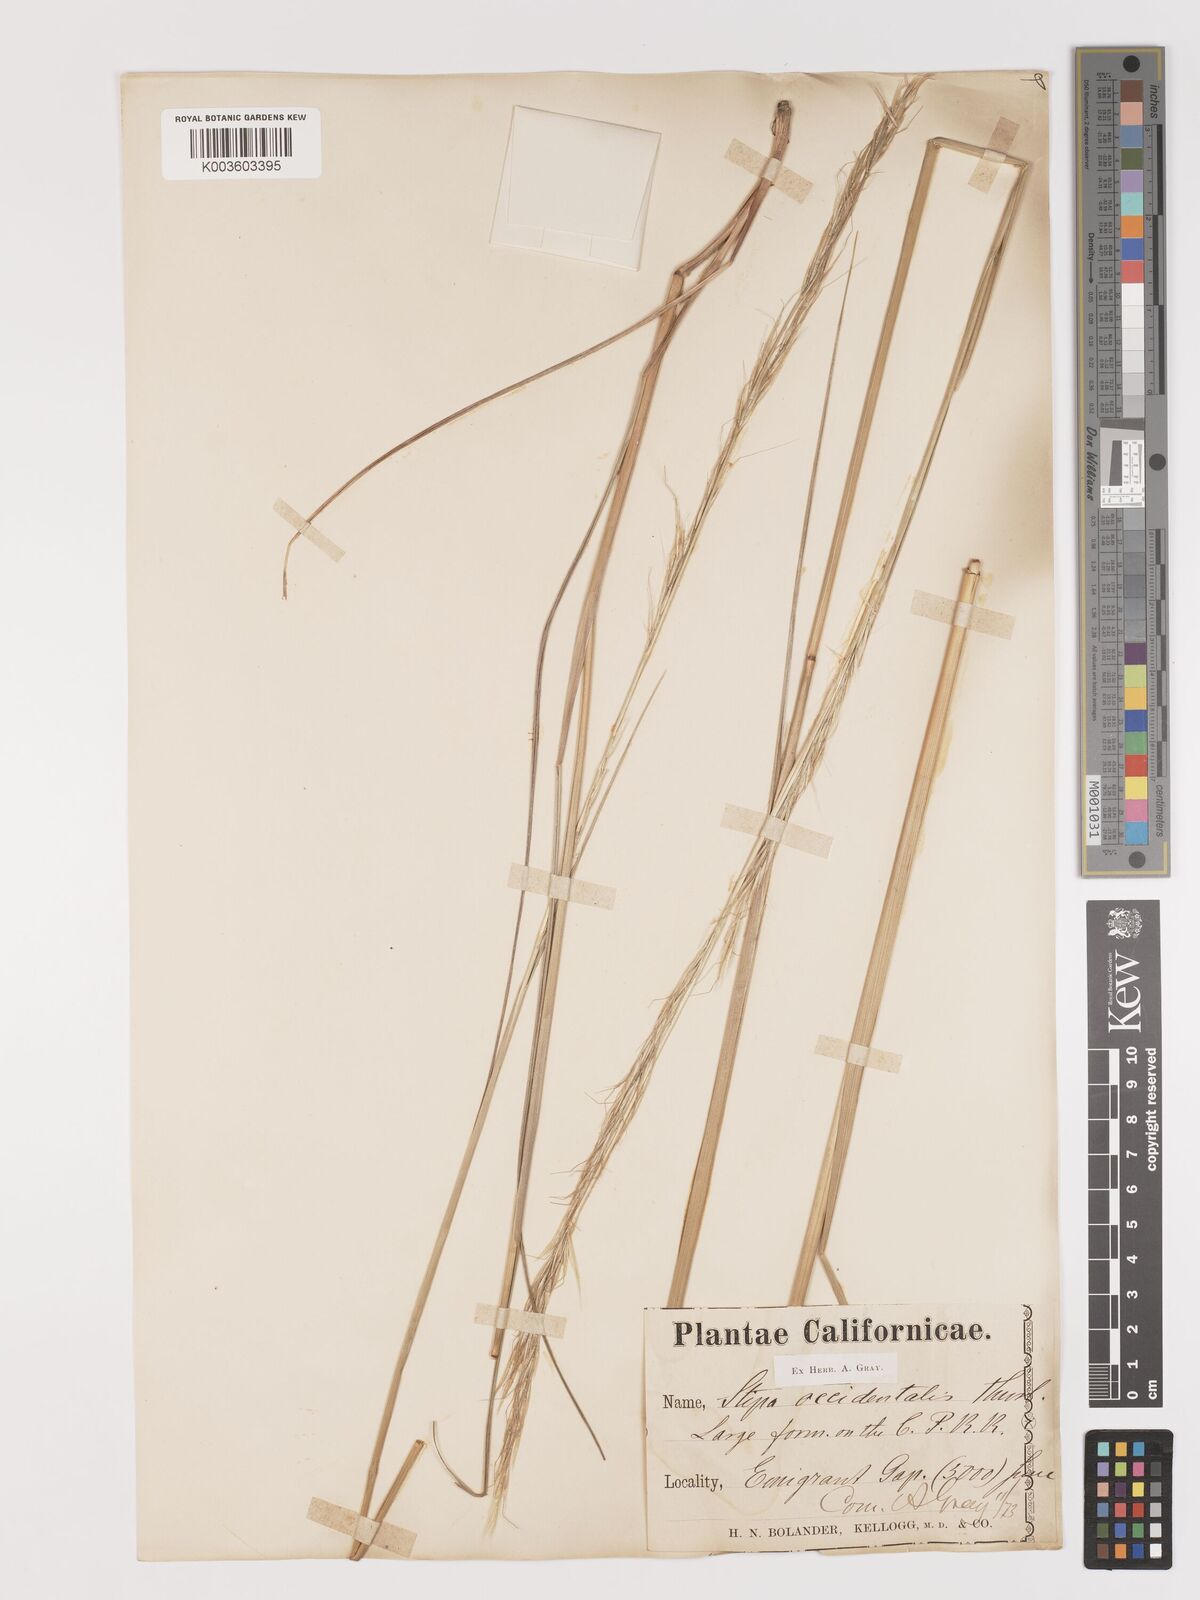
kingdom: Plantae
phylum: Tracheophyta
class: Liliopsida
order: Poales
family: Poaceae
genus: Eriocoma
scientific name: Eriocoma thurberiana
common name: Thurber's needlegrass
